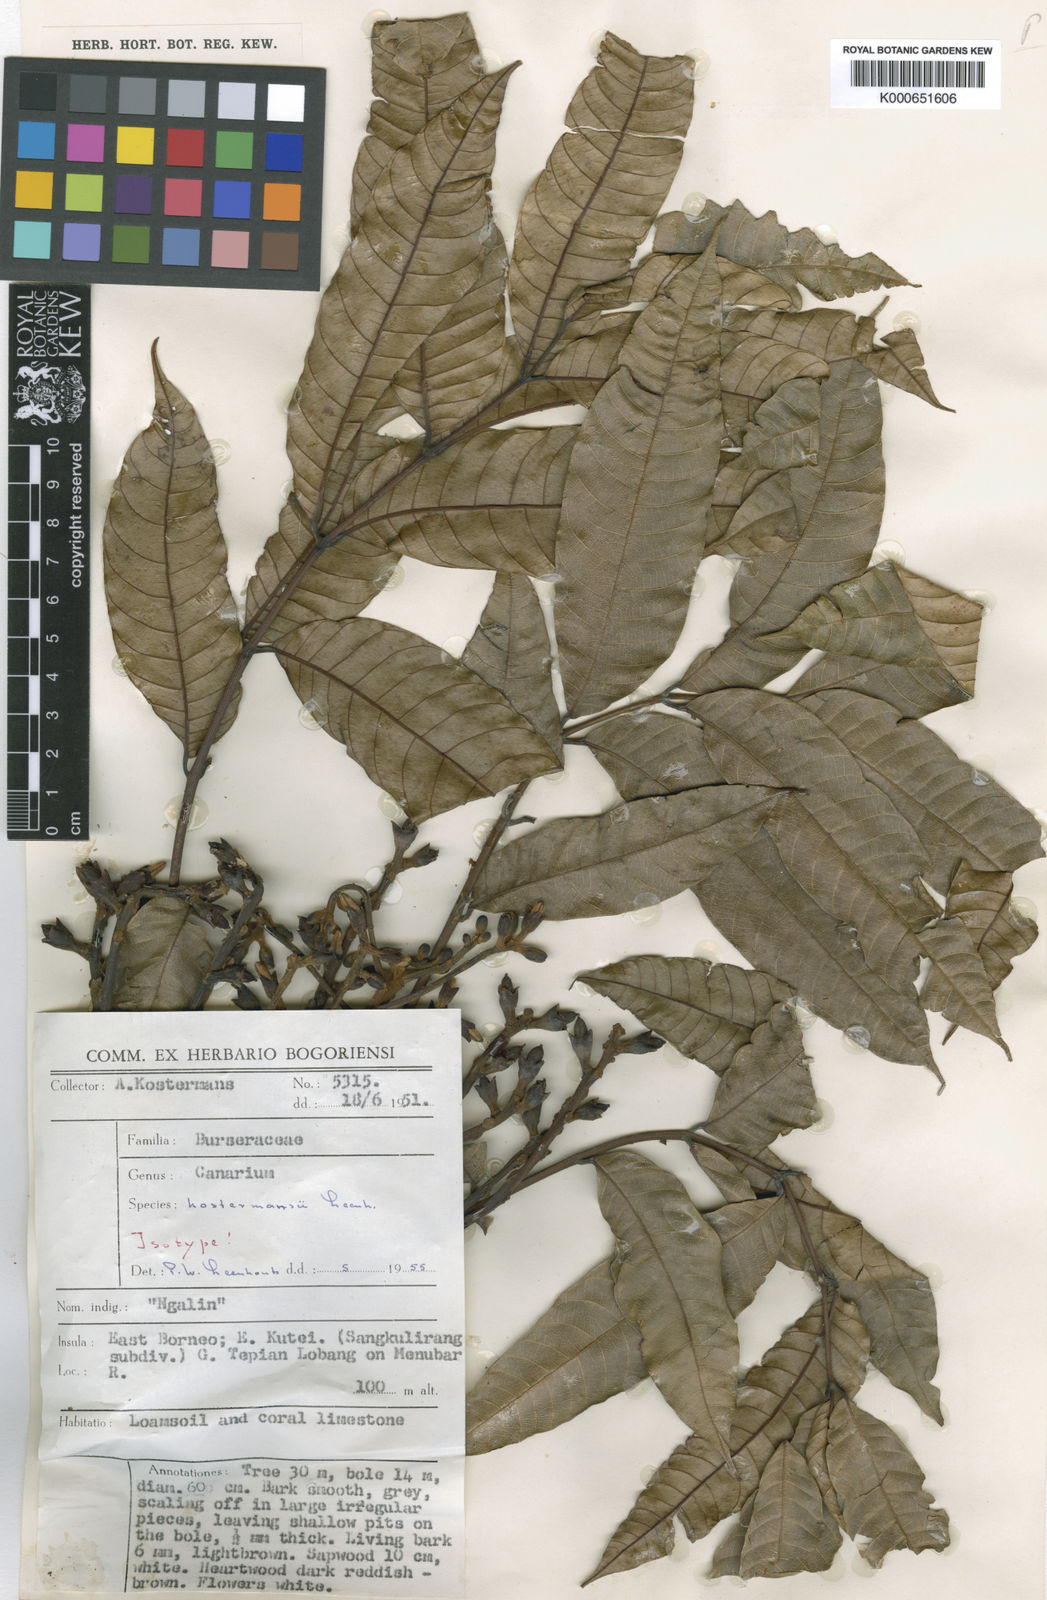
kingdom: Plantae
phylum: Tracheophyta
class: Magnoliopsida
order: Sapindales
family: Burseraceae
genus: Canarium
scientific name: Canarium kostermansii
